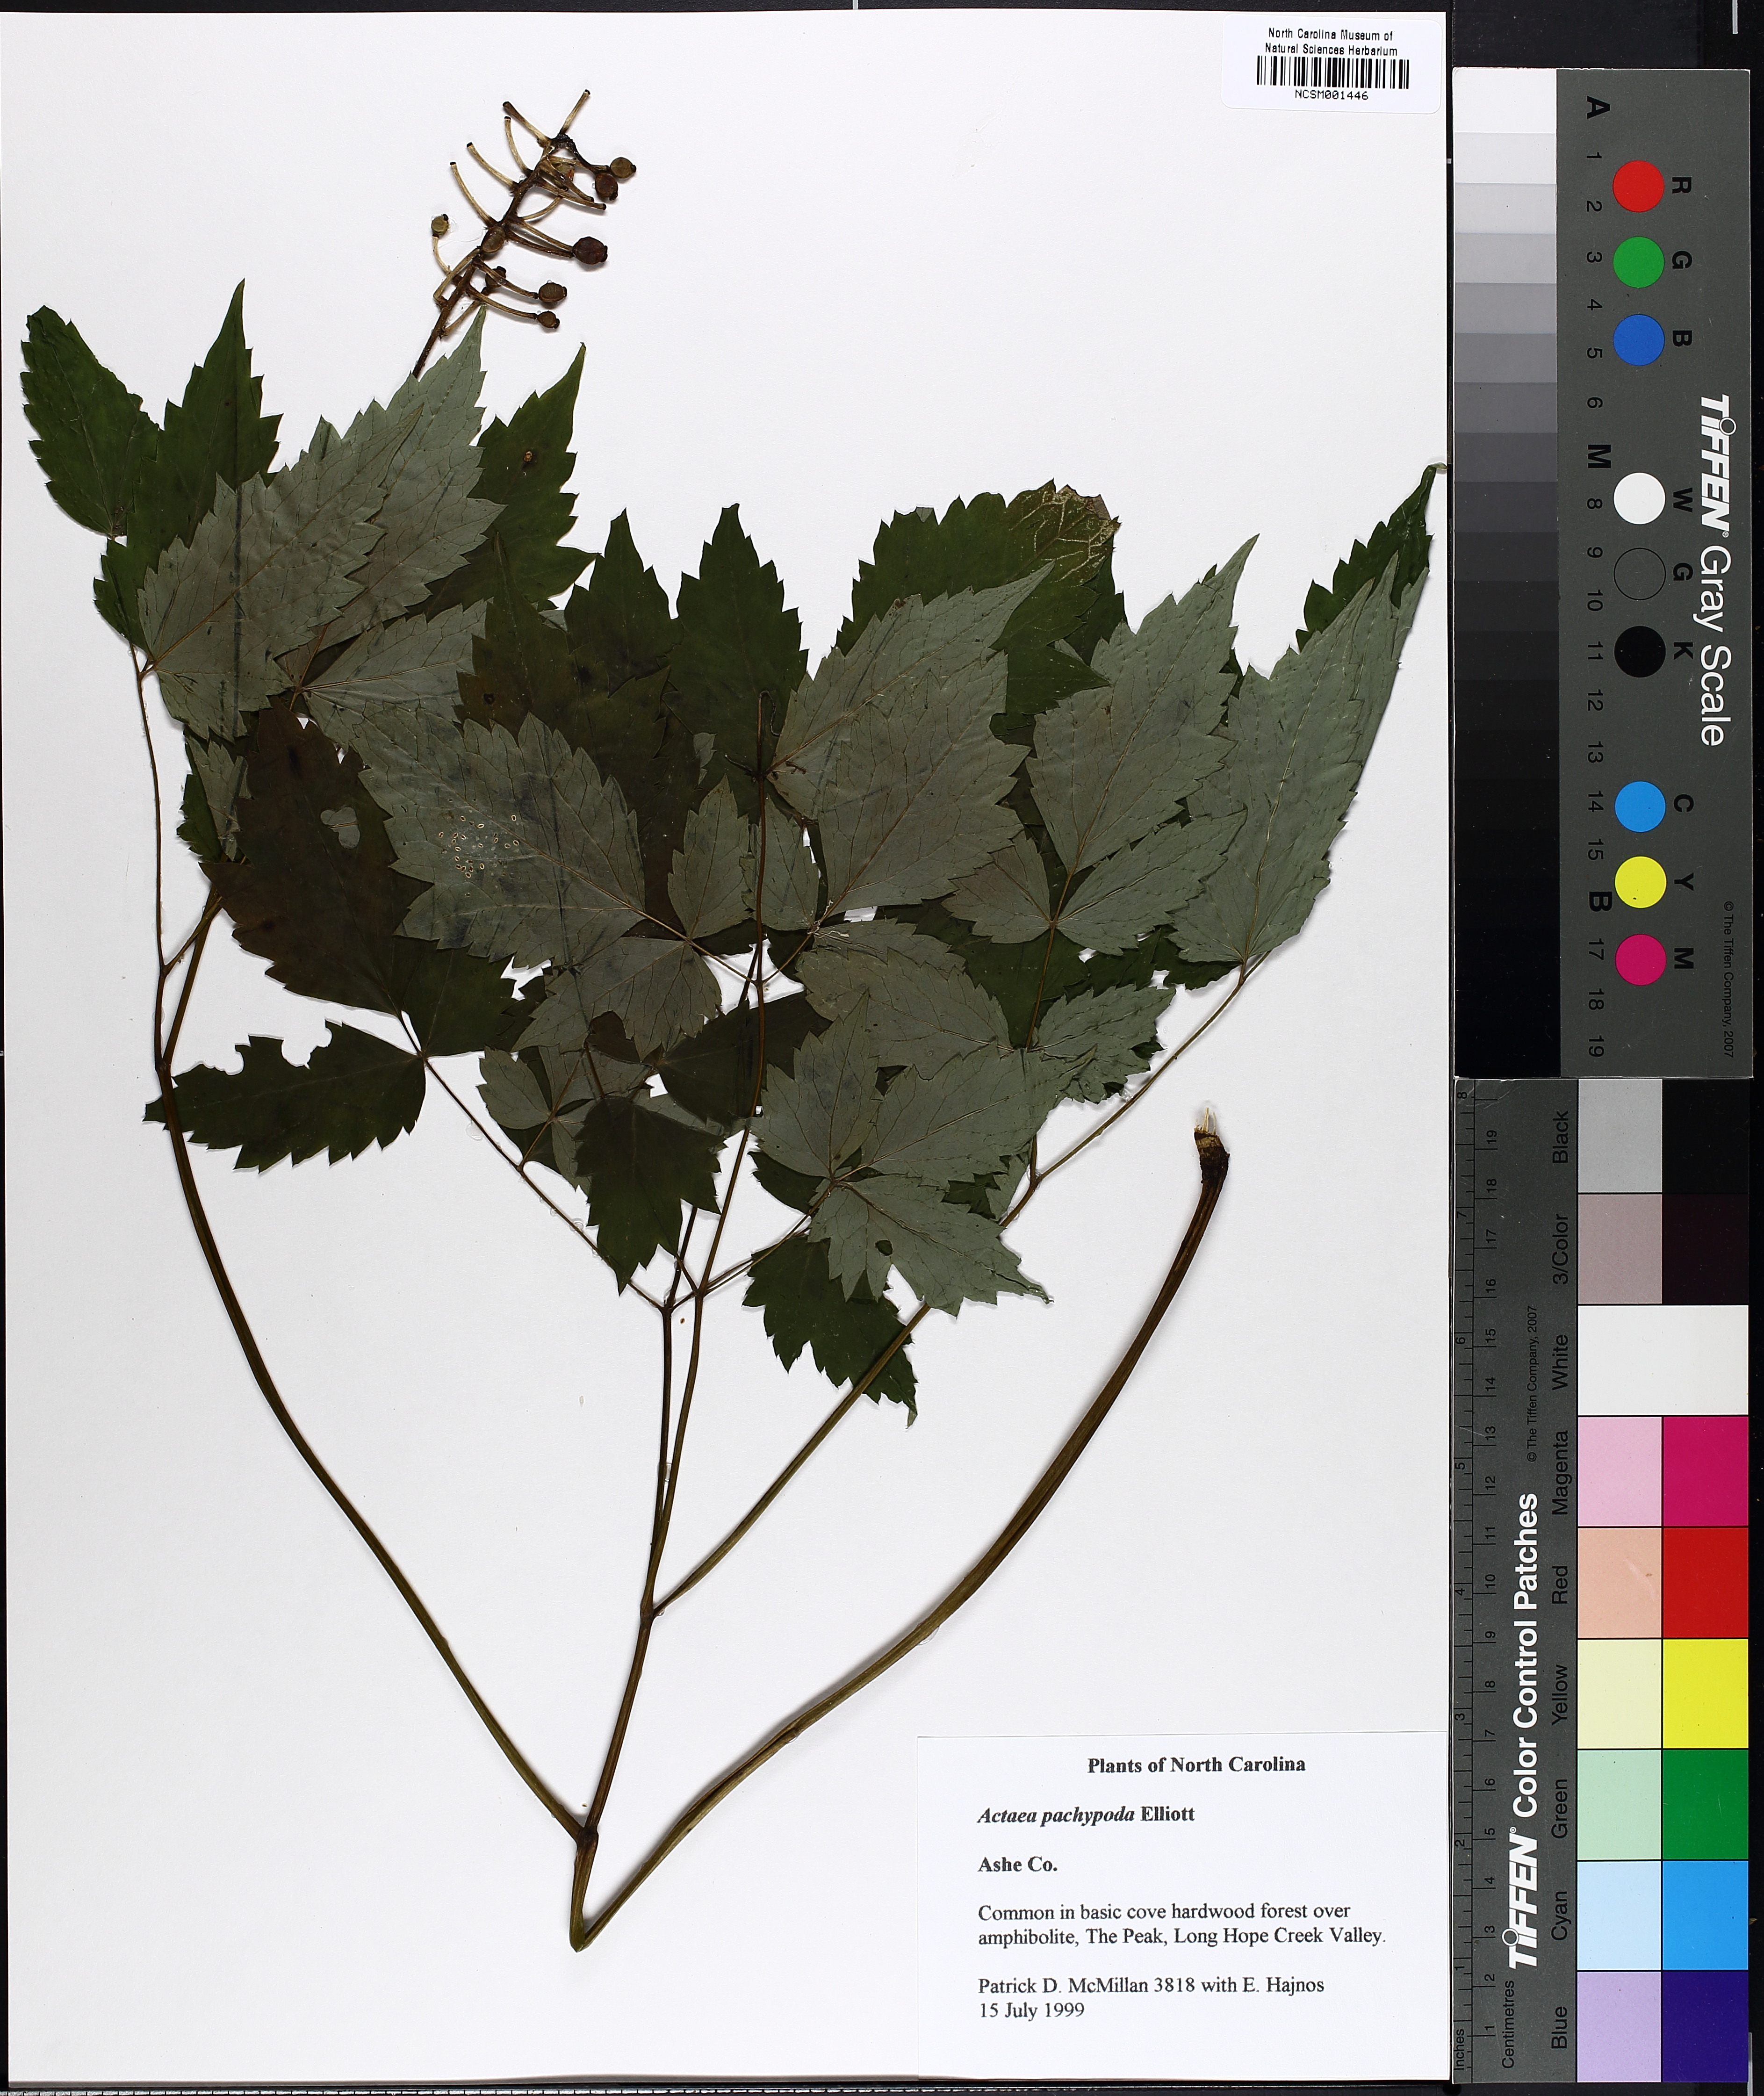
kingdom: Plantae
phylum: Tracheophyta
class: Magnoliopsida
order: Ranunculales
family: Ranunculaceae
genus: Actaea
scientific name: Actaea pachypoda
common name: Doll's-eyes
